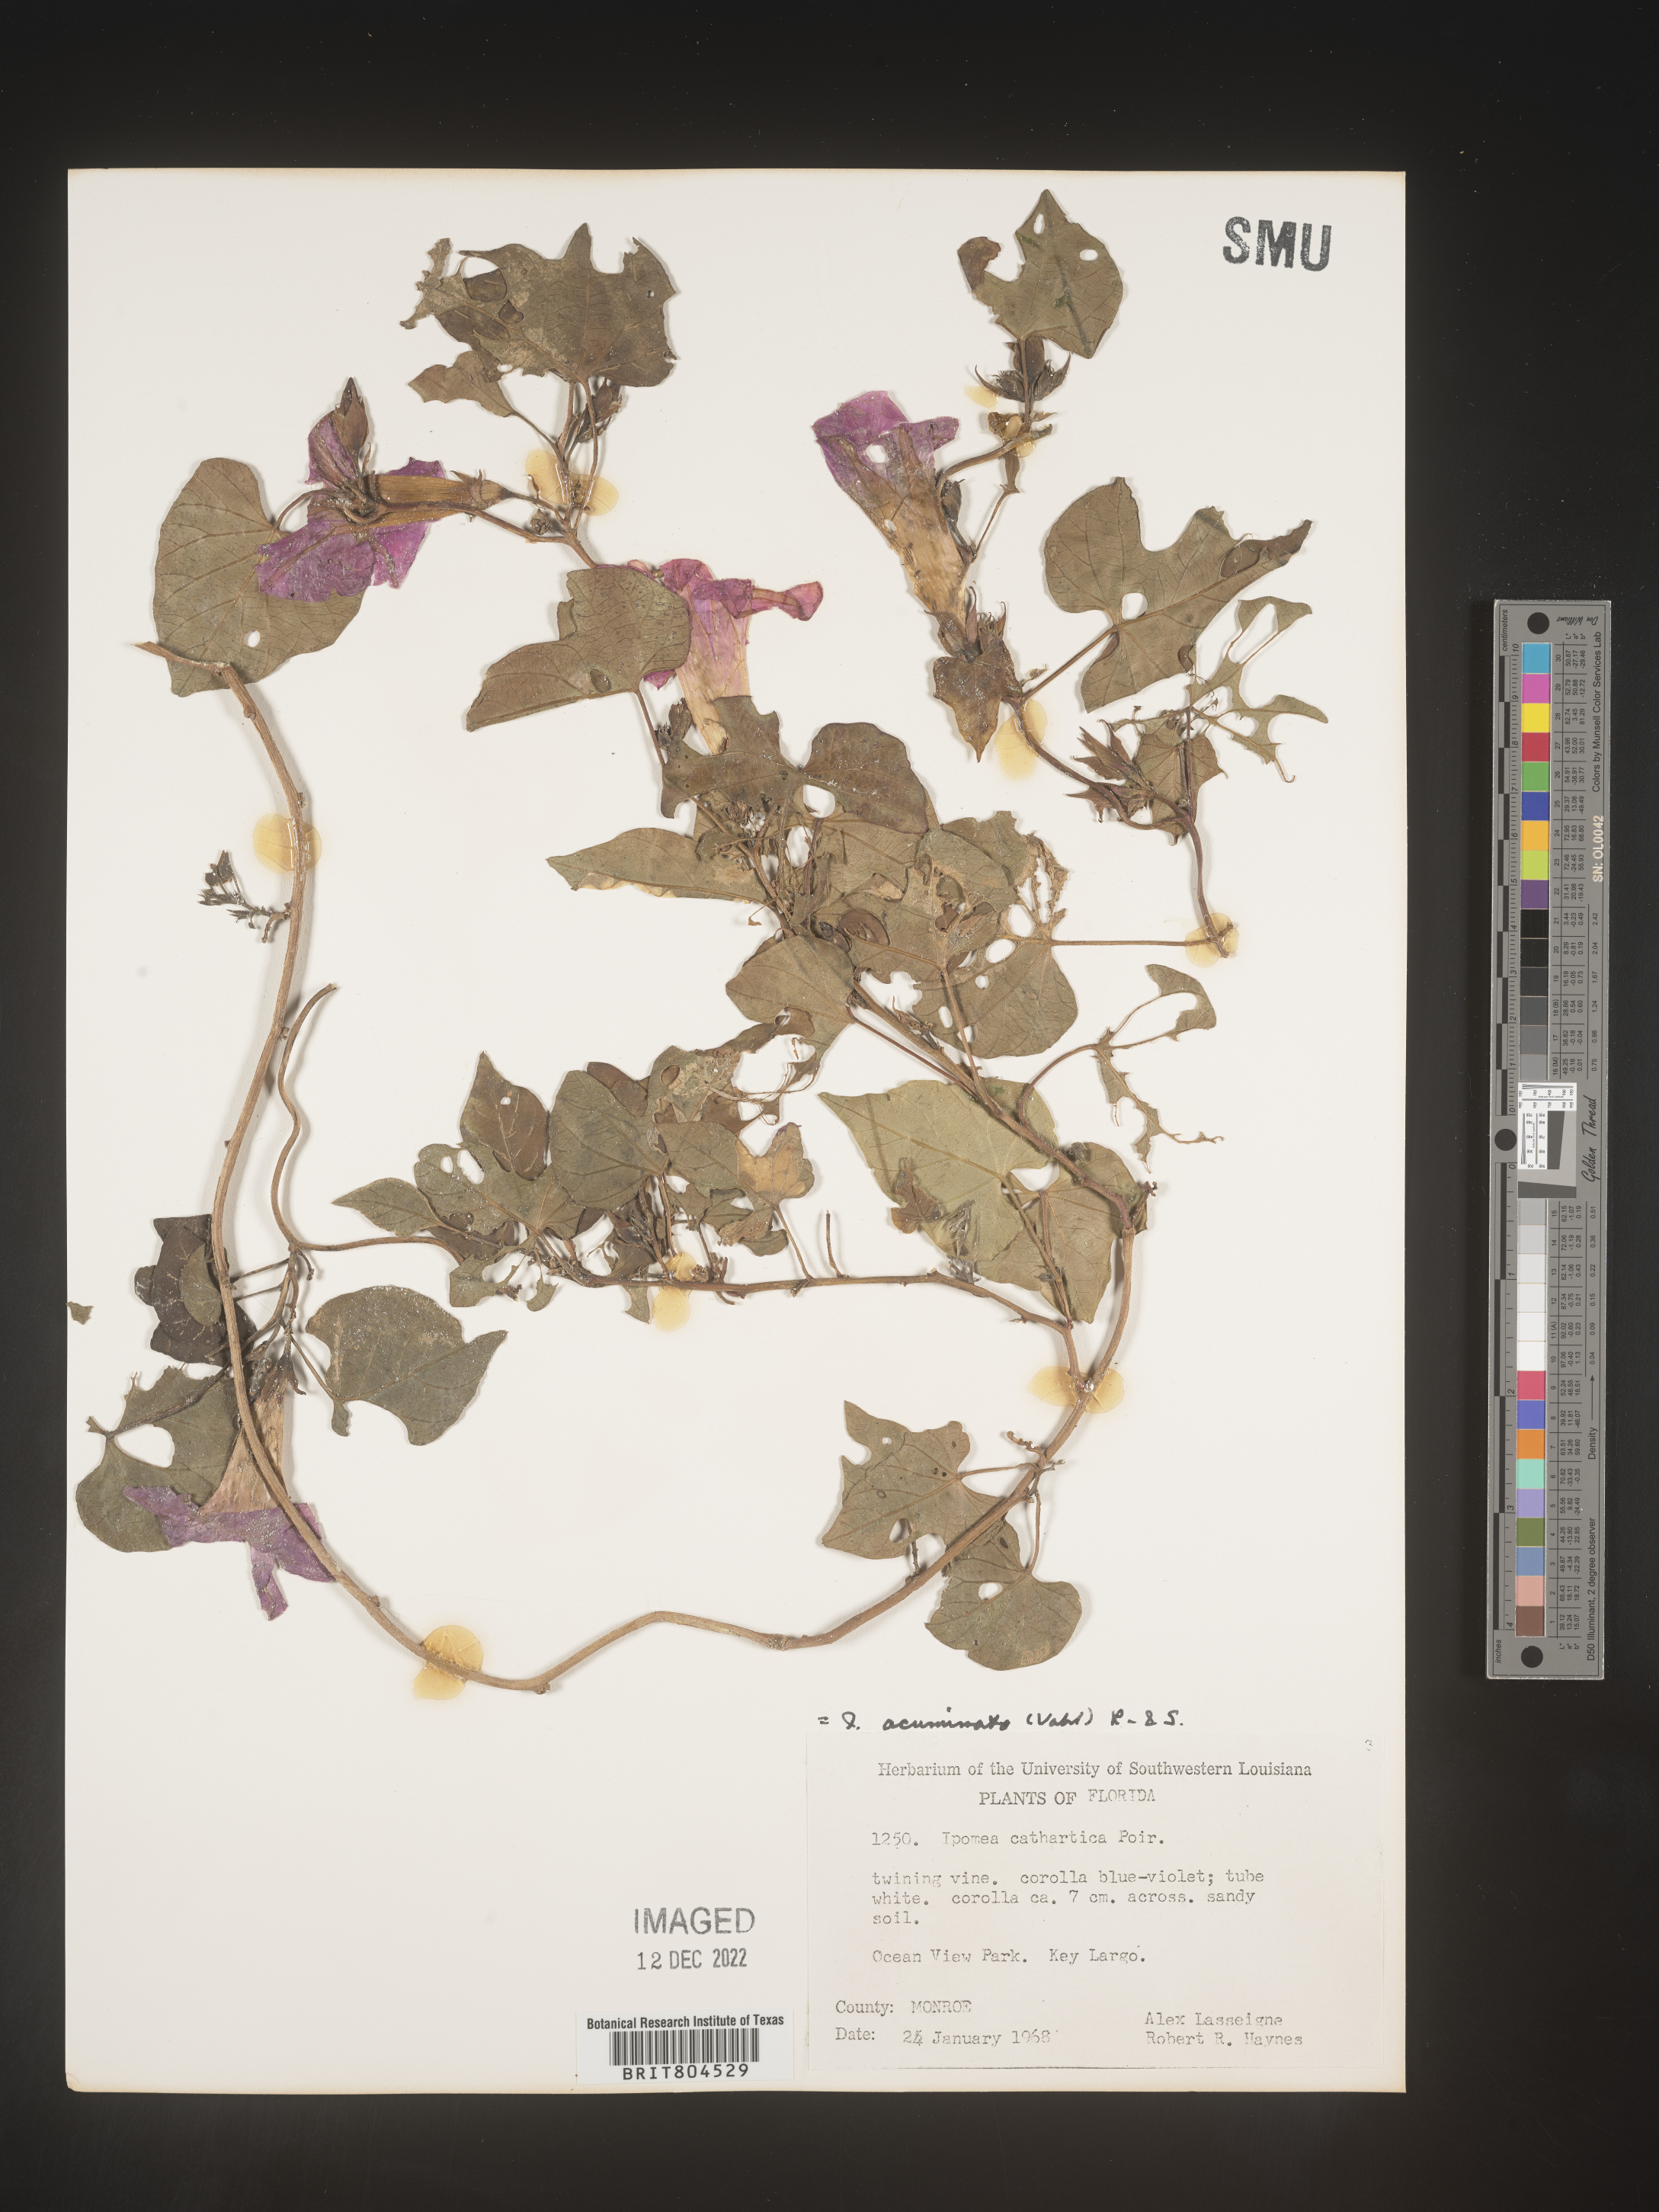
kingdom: Plantae
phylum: Tracheophyta
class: Magnoliopsida
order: Solanales
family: Convolvulaceae
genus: Ipomoea
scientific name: Ipomoea coccinea
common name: Red morning-glory
